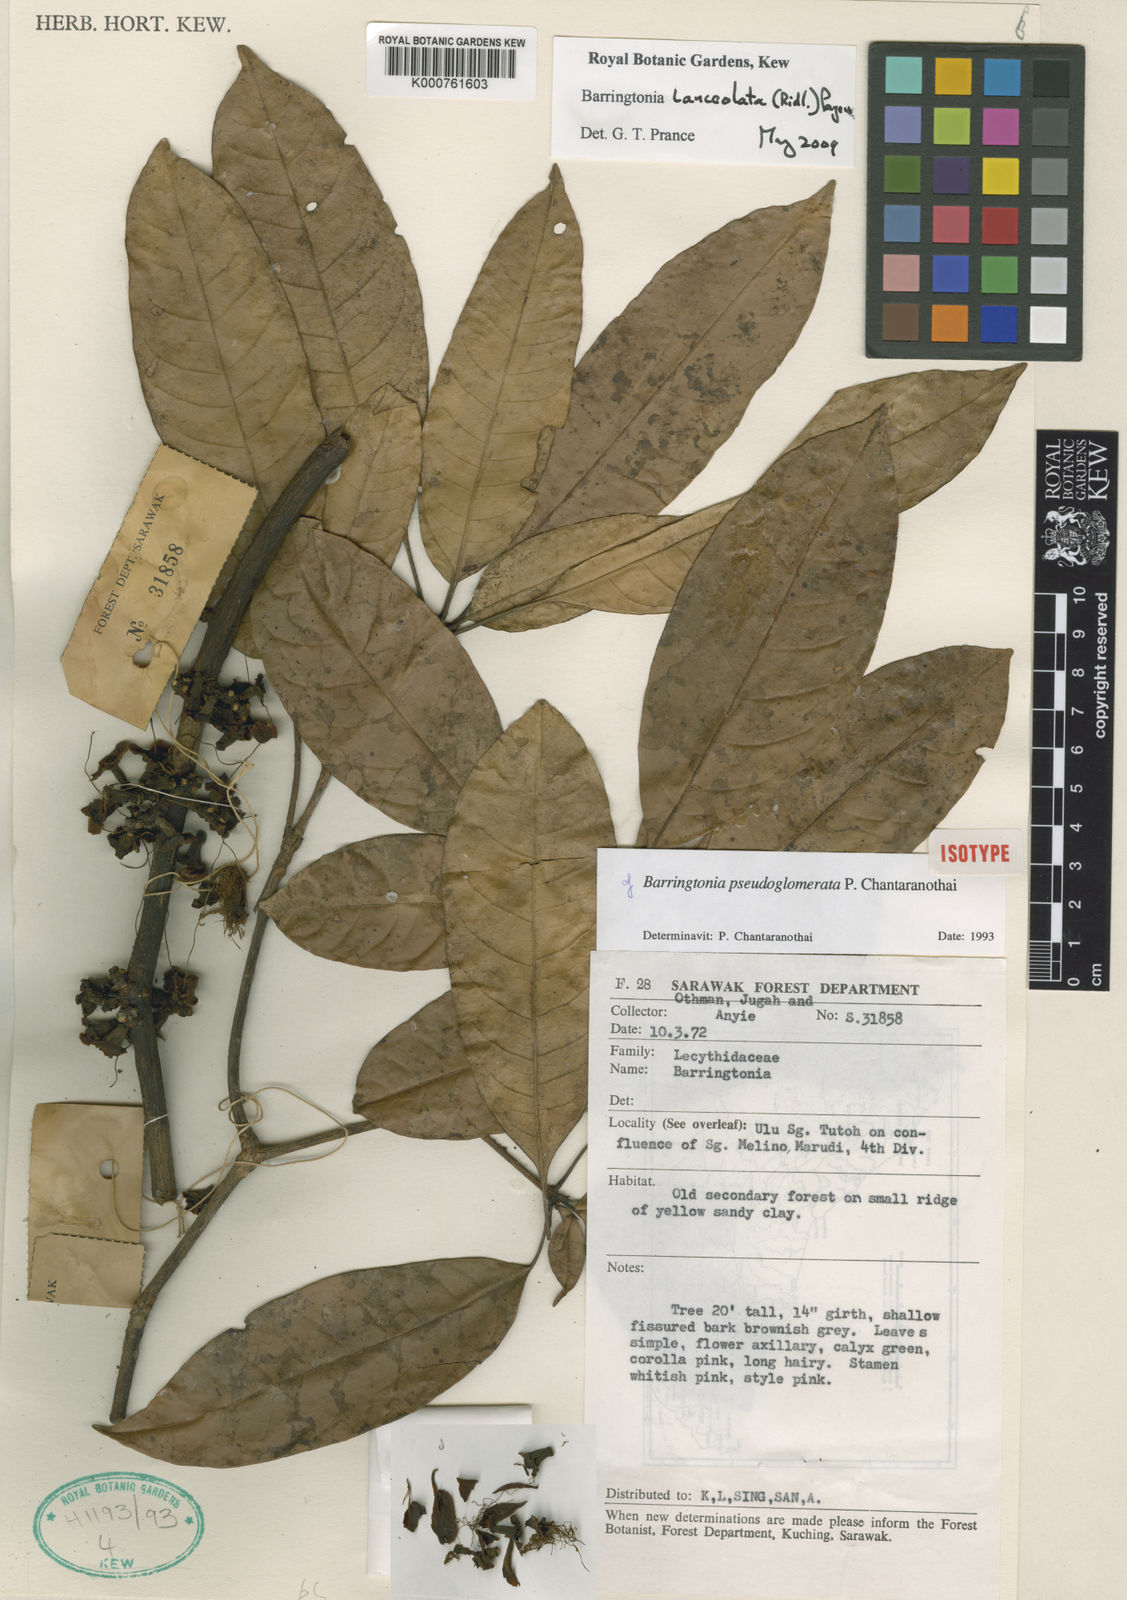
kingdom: Plantae
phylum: Tracheophyta
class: Magnoliopsida
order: Ericales
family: Lecythidaceae
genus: Barringtonia
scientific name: Barringtonia lanceolata
